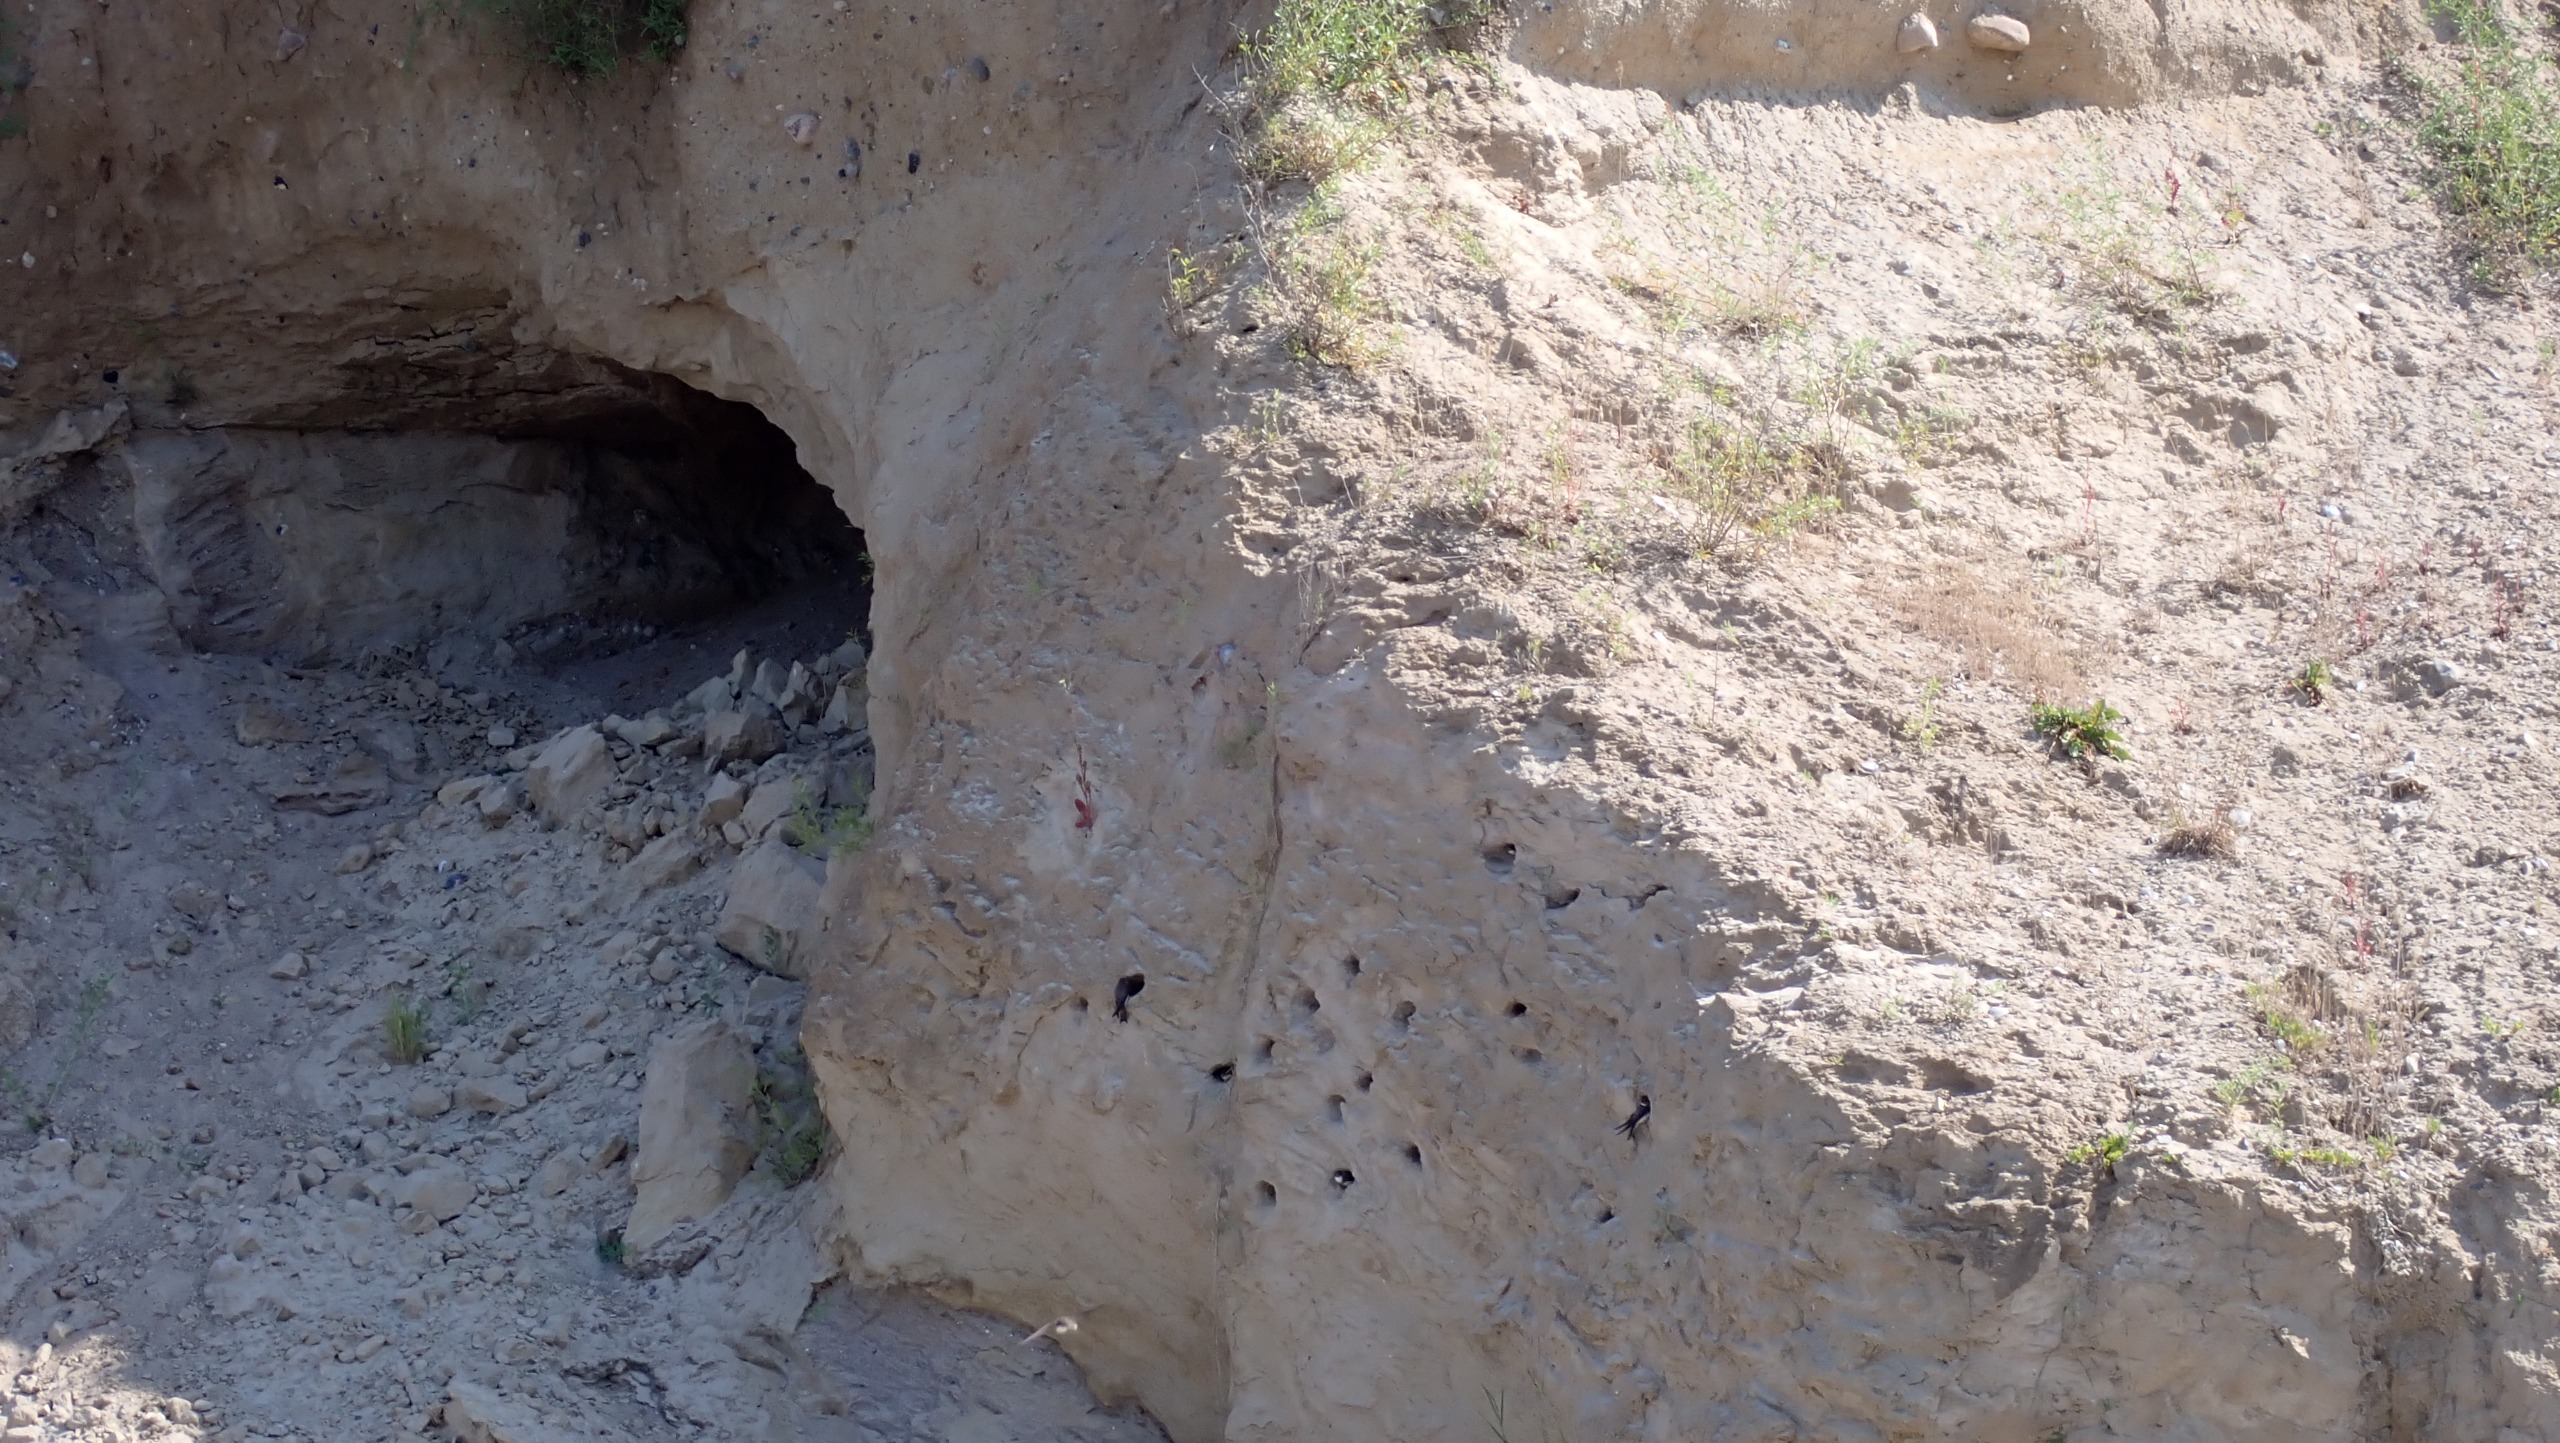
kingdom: Animalia
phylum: Chordata
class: Aves
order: Passeriformes
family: Hirundinidae
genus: Riparia
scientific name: Riparia riparia
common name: Digesvale
